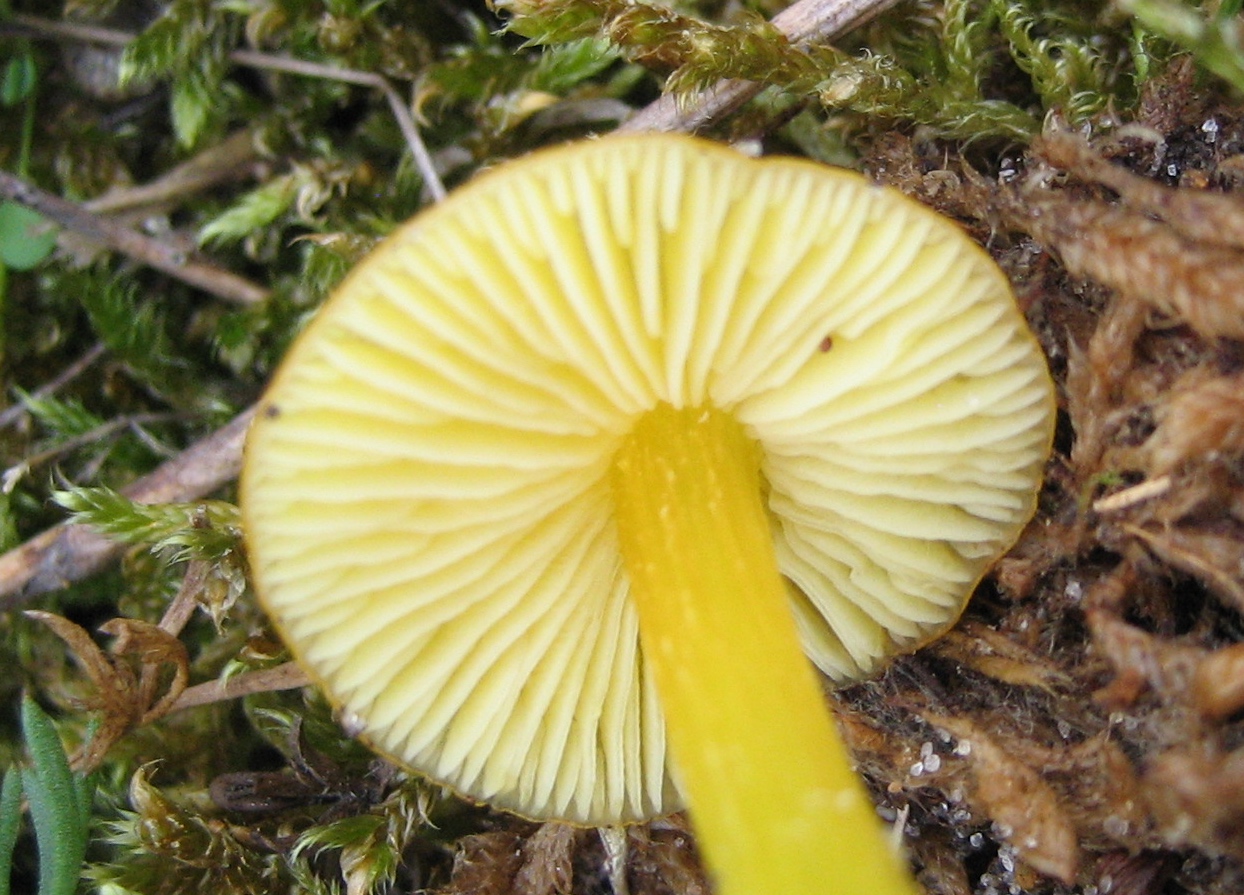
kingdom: Fungi
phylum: Basidiomycota
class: Agaricomycetes
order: Agaricales
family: Hygrophoraceae
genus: Hygrocybe
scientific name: Hygrocybe chlorophana
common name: gul vokshat
